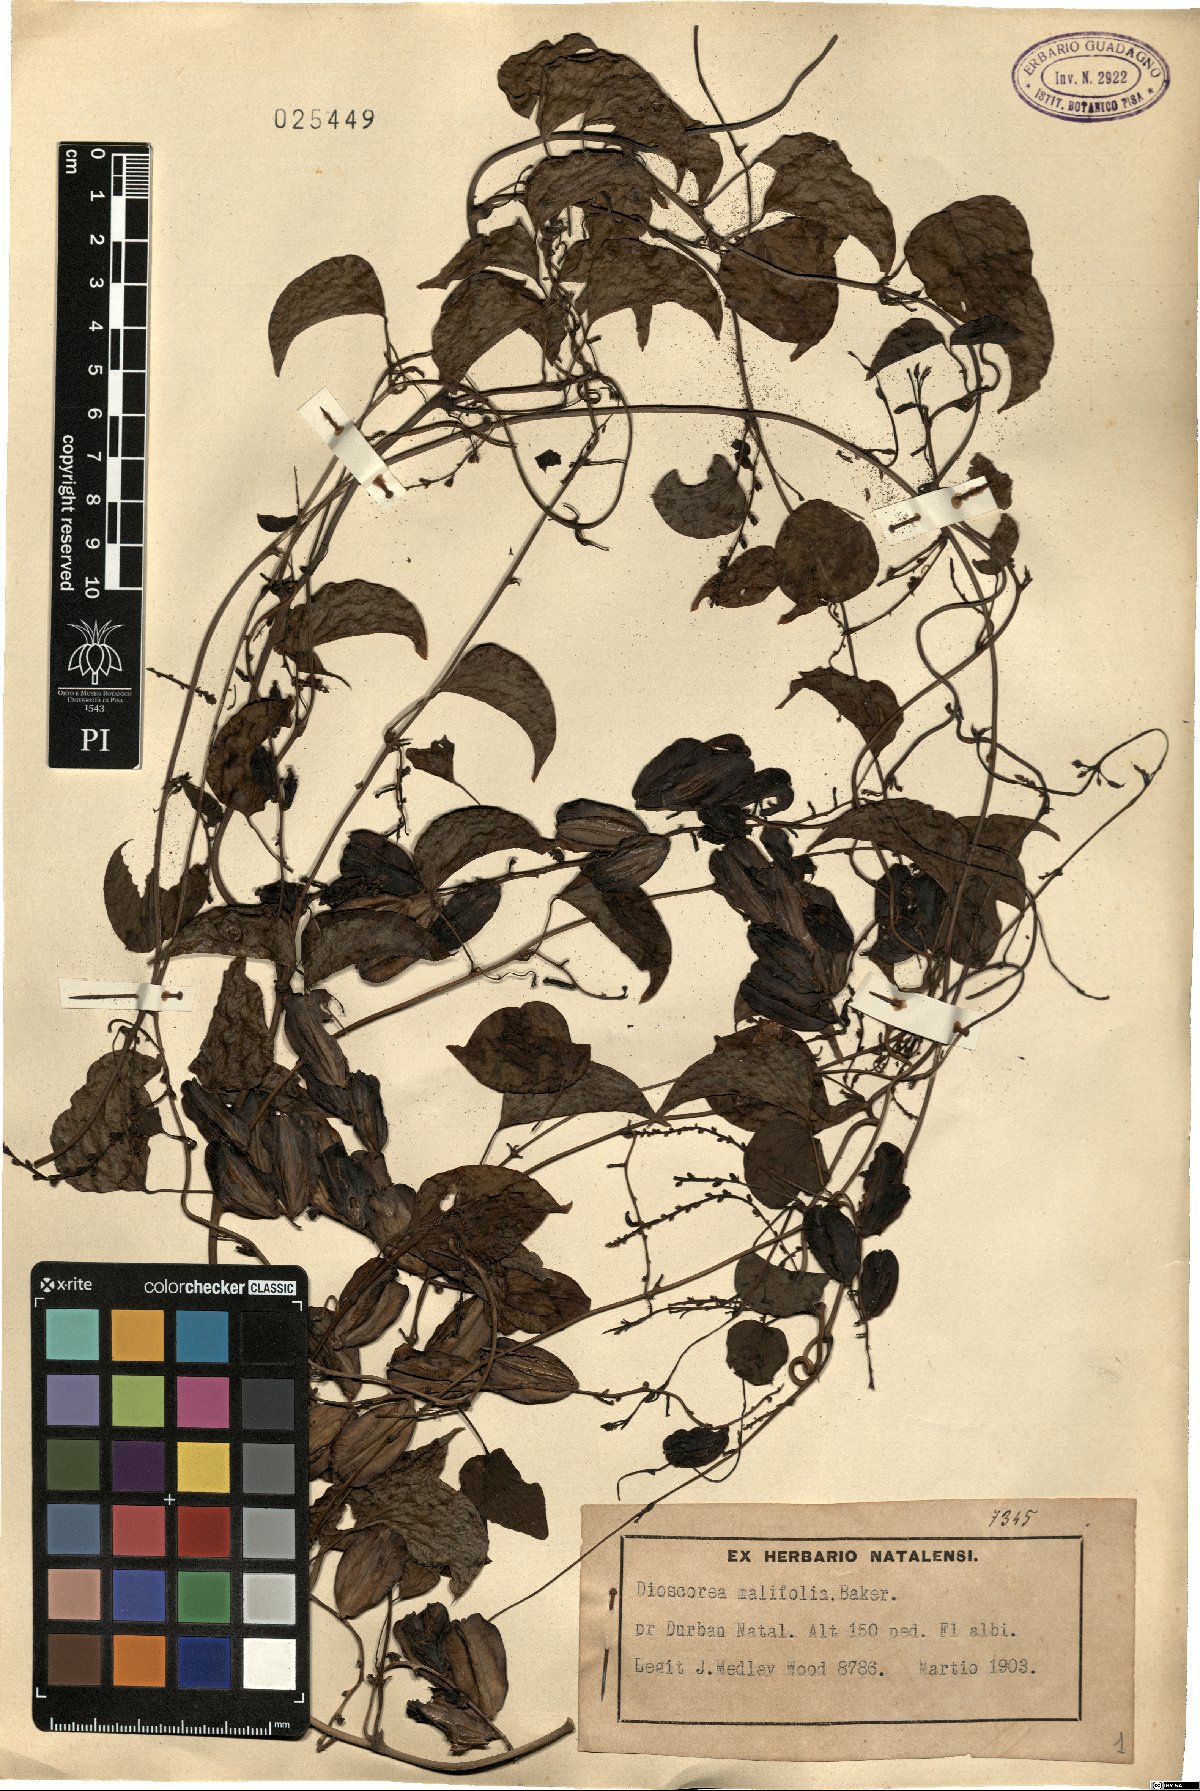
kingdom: Plantae
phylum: Tracheophyta
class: Liliopsida
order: Dioscoreales
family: Dioscoreaceae
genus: Dioscorea
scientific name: Dioscorea cotinifolia
